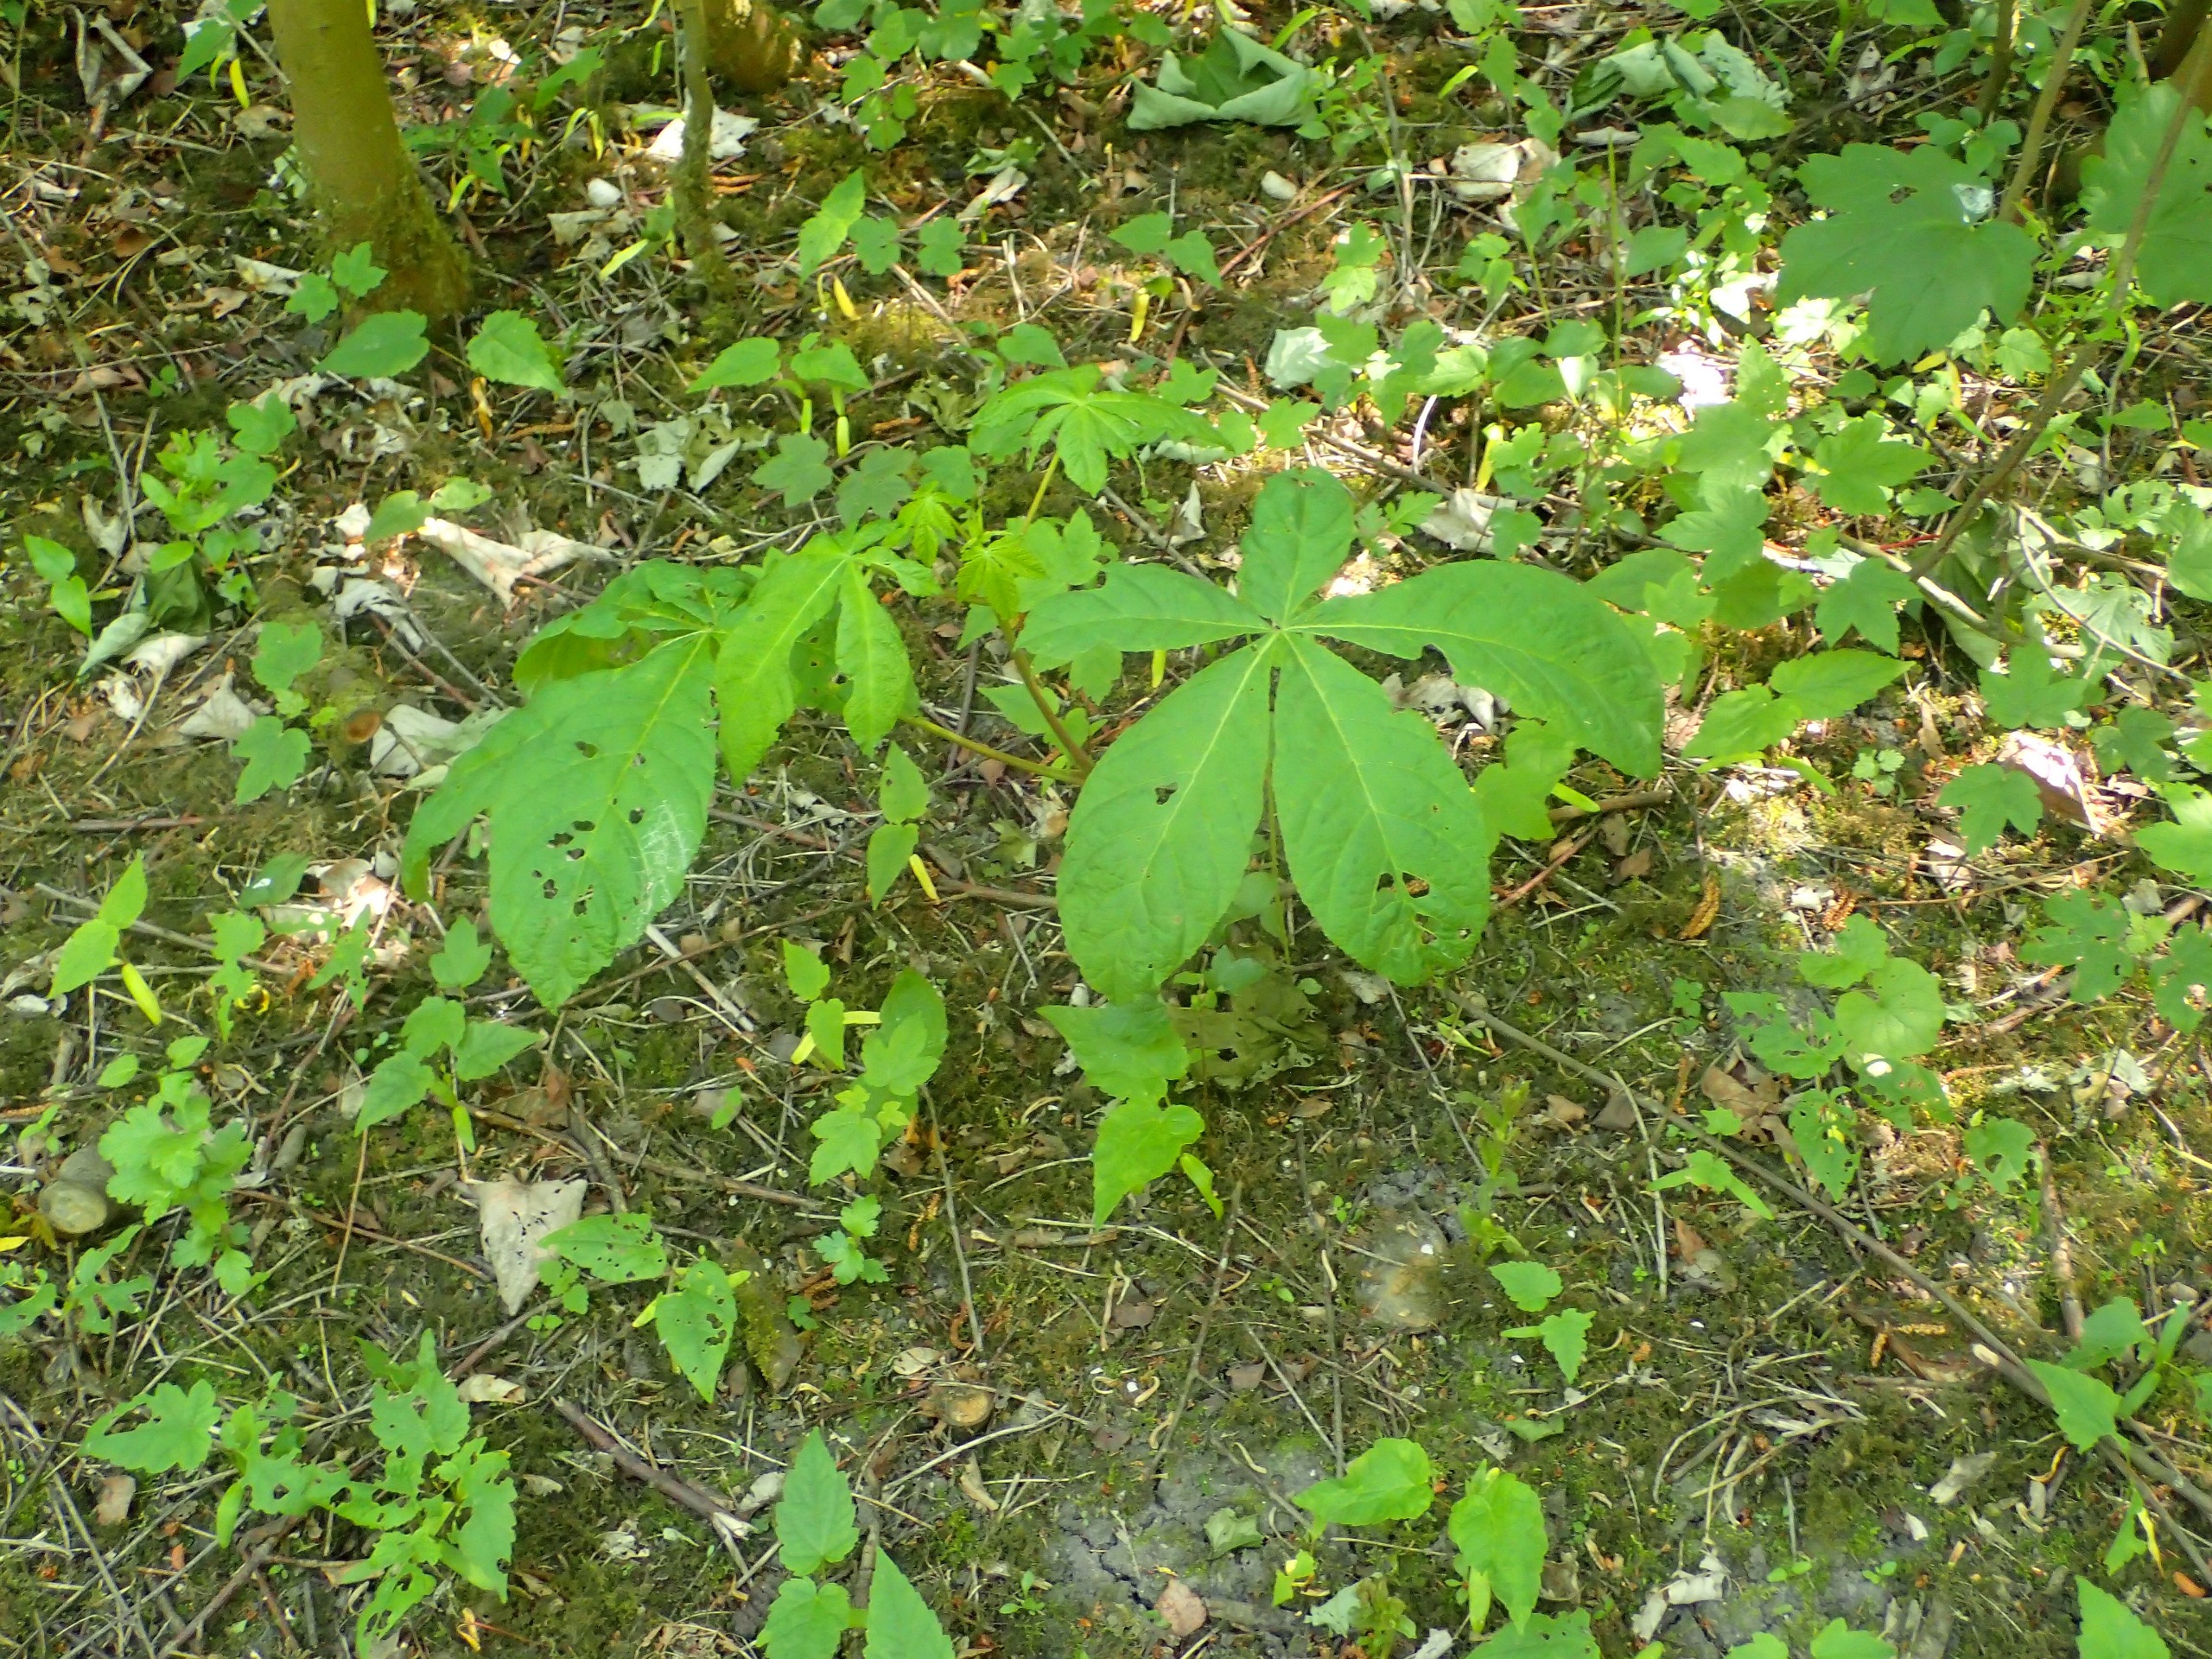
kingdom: Plantae
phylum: Tracheophyta
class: Magnoliopsida
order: Sapindales
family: Sapindaceae
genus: Aesculus
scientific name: Aesculus hippocastanum
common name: Hestekastanie
